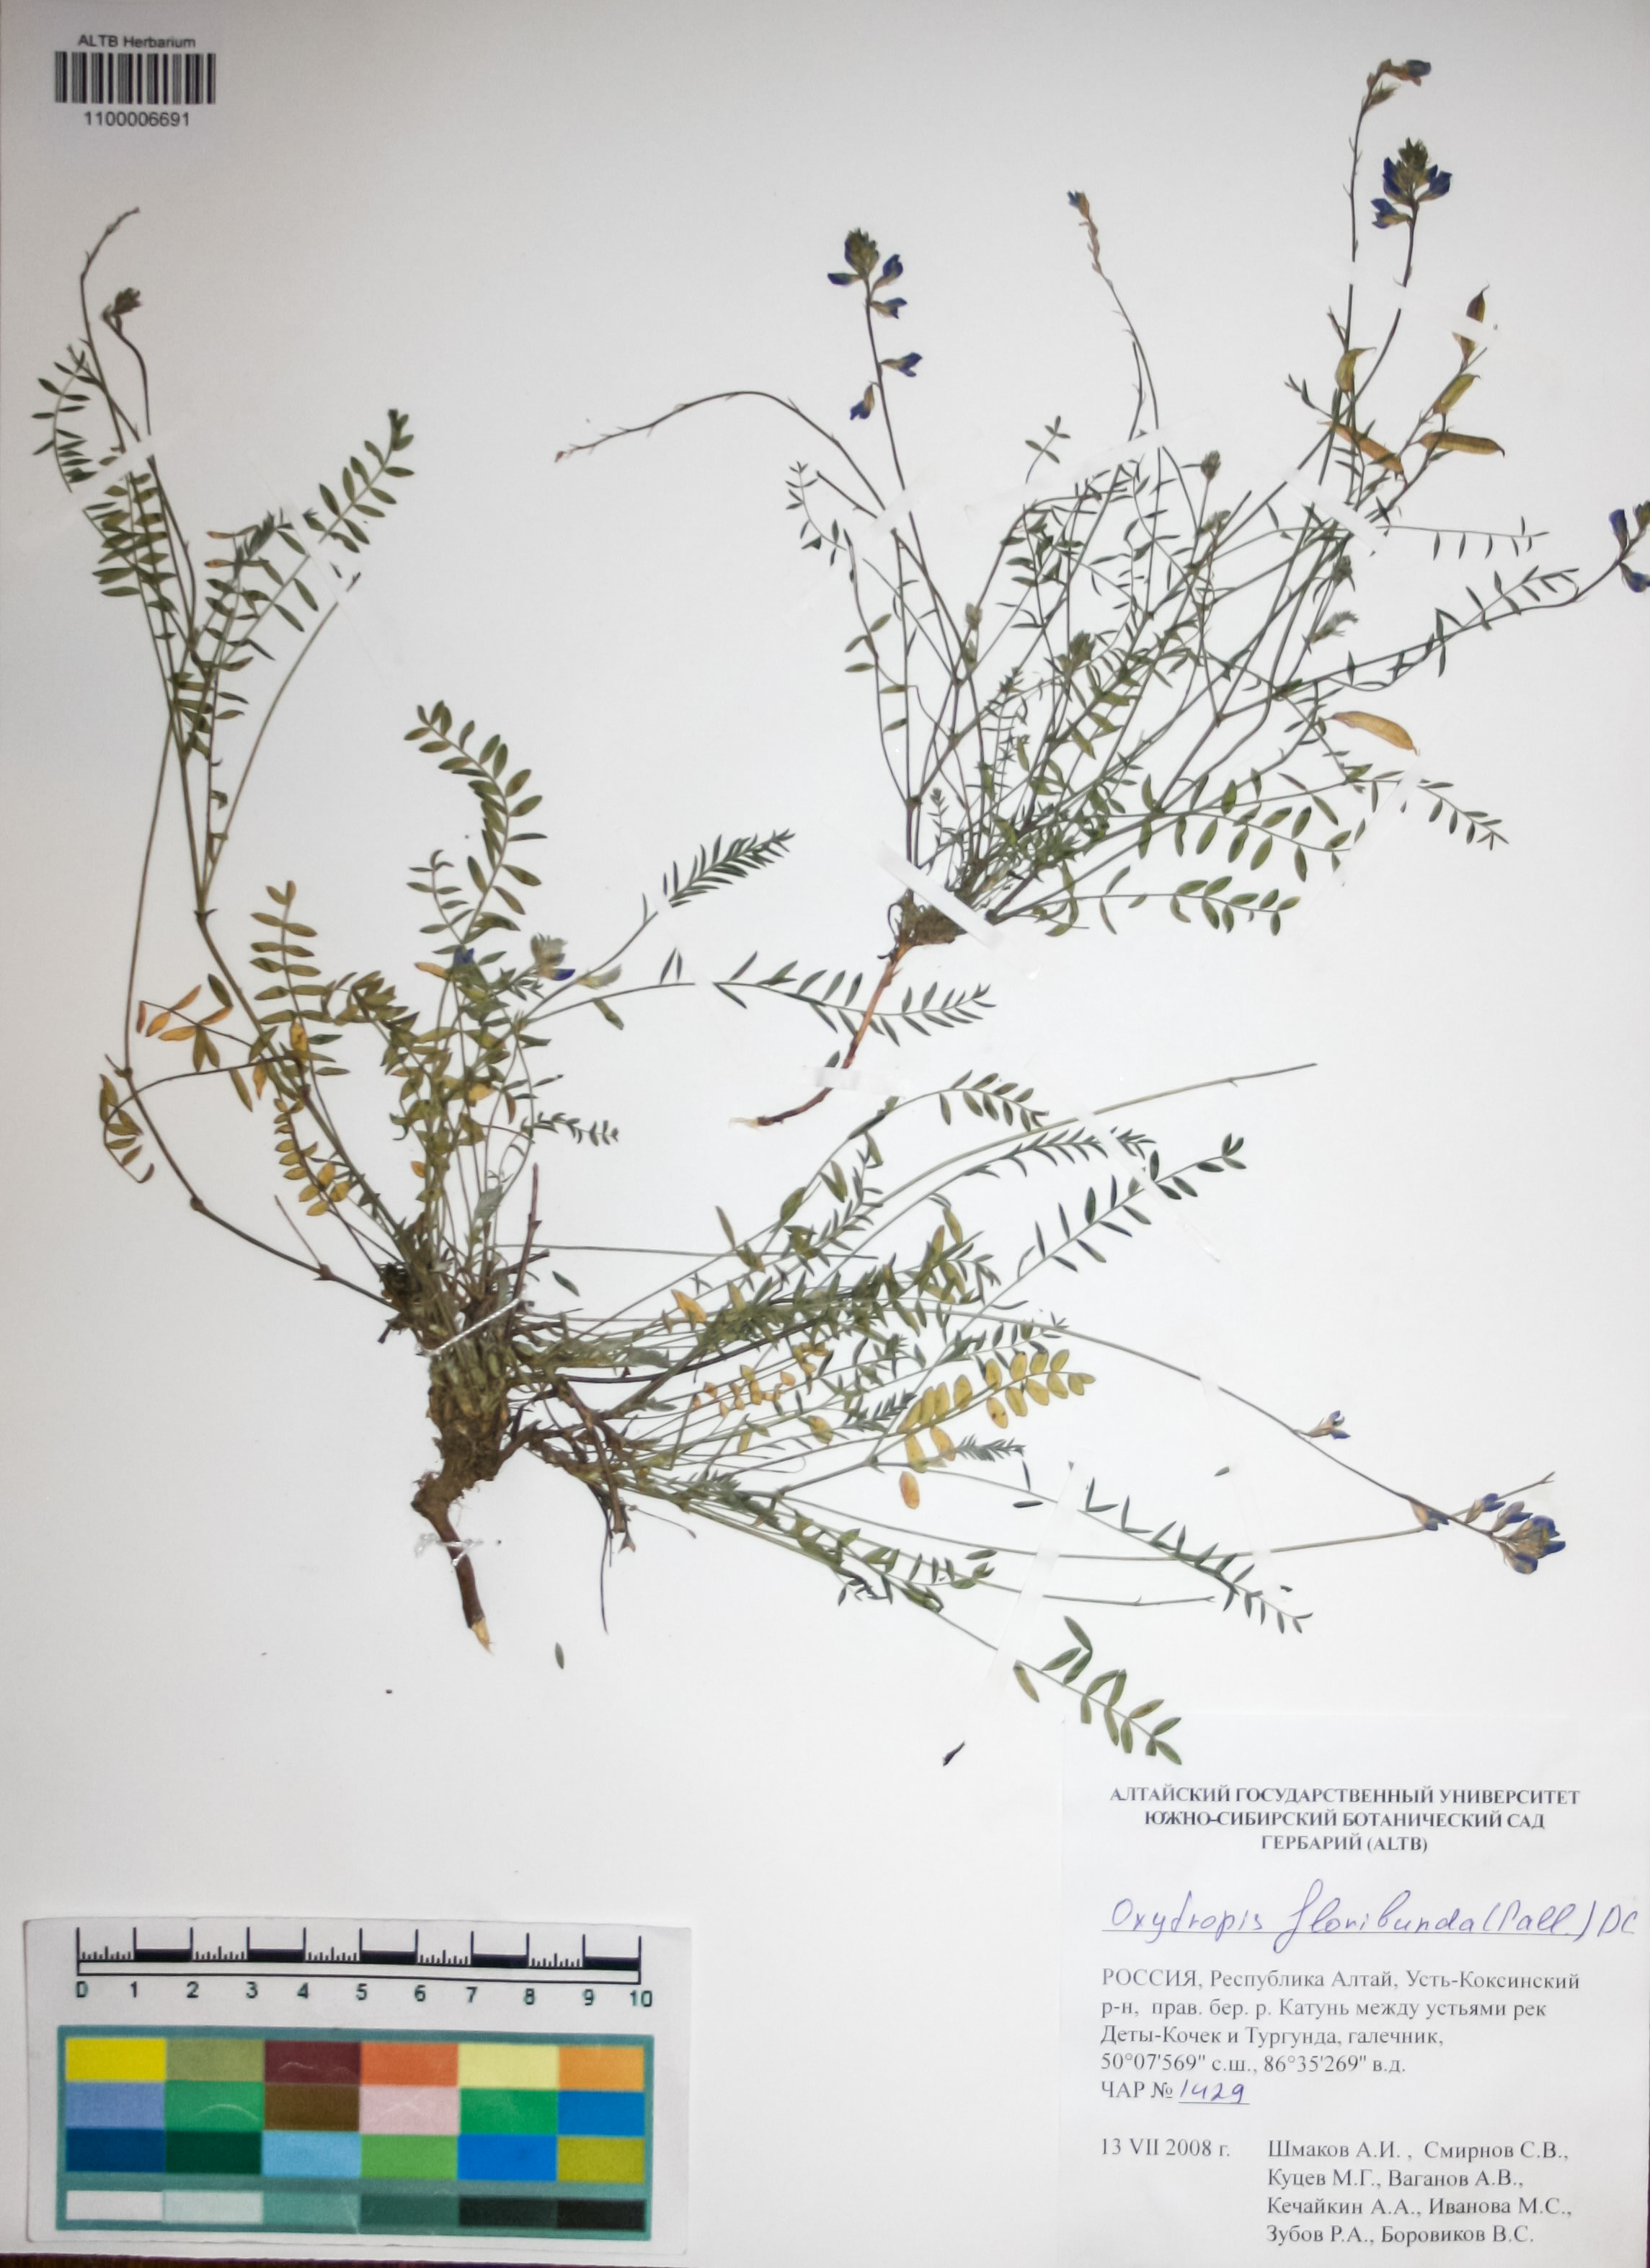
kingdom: Plantae
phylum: Tracheophyta
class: Magnoliopsida
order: Fabales
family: Fabaceae
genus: Oxytropis
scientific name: Oxytropis floribunda
